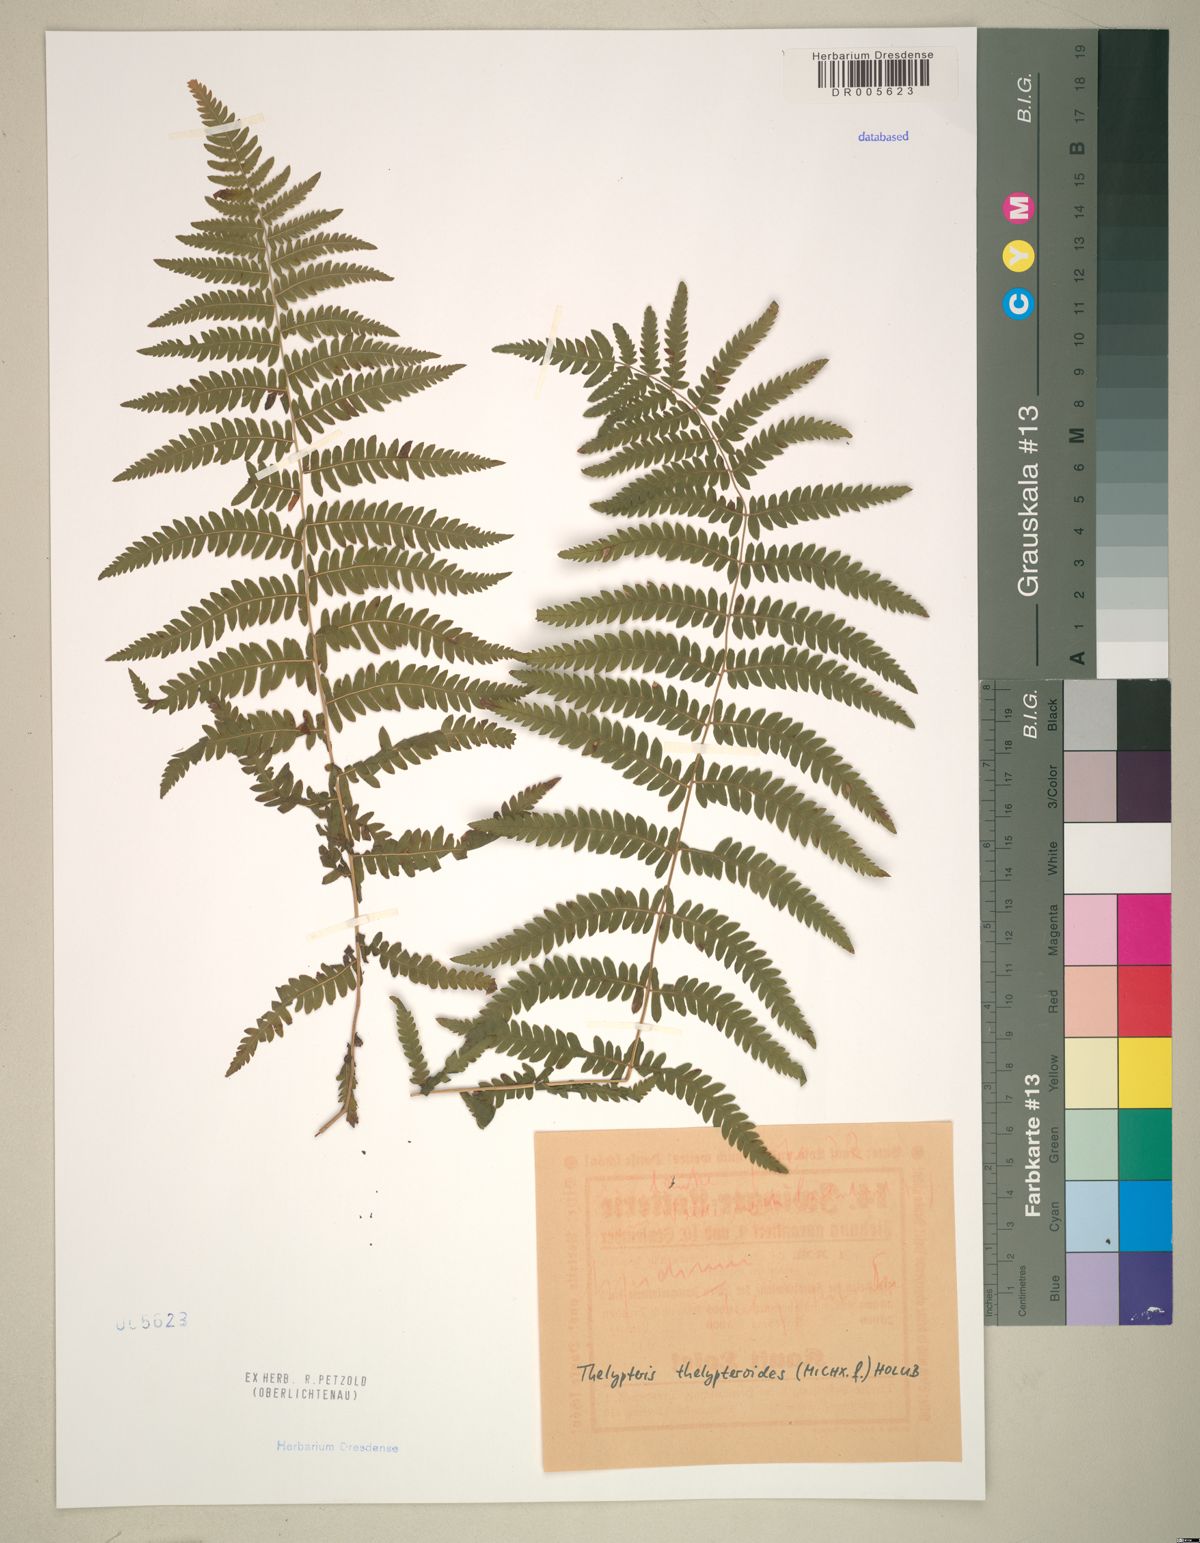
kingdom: Plantae
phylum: Tracheophyta
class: Polypodiopsida
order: Polypodiales
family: Thelypteridaceae
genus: Amauropelta
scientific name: Amauropelta noveboracensis
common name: New york fern
